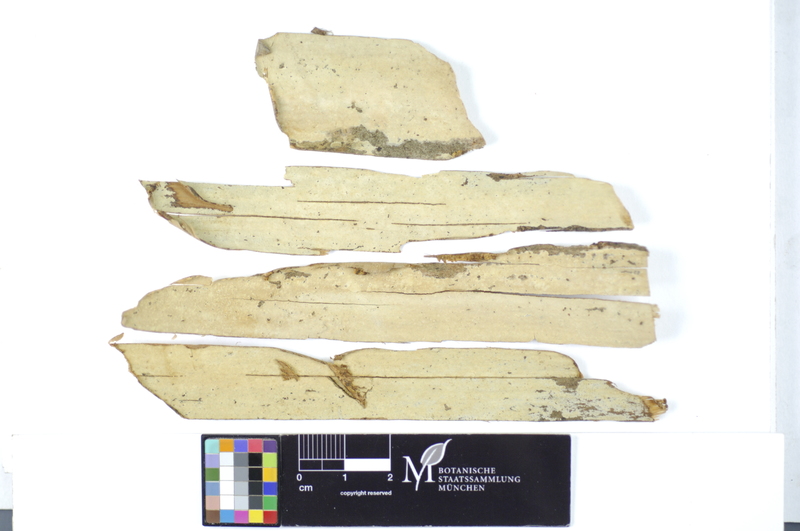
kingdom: Plantae
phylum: Tracheophyta
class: Pinopsida
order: Pinales
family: Pinaceae
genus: Pinus
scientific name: Pinus
